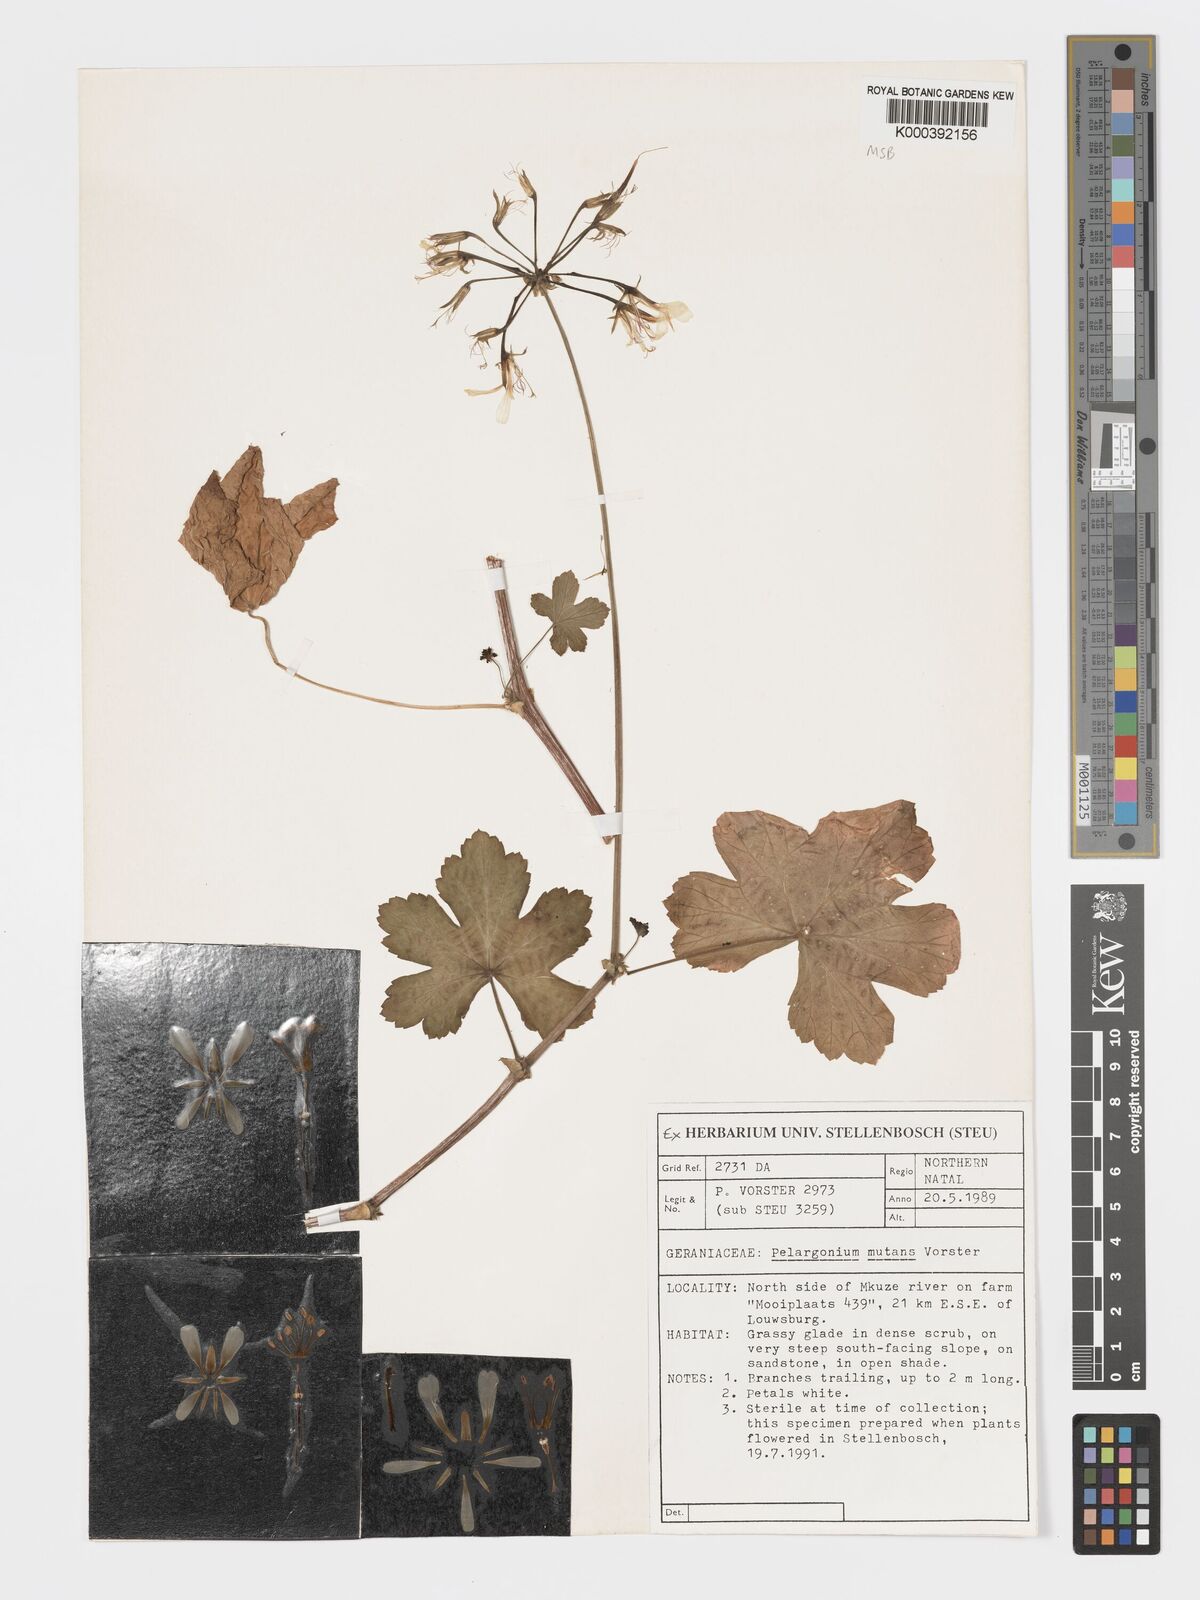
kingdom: Plantae
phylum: Tracheophyta
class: Magnoliopsida
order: Geraniales
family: Geraniaceae
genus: Pelargonium
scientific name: Pelargonium mutans
